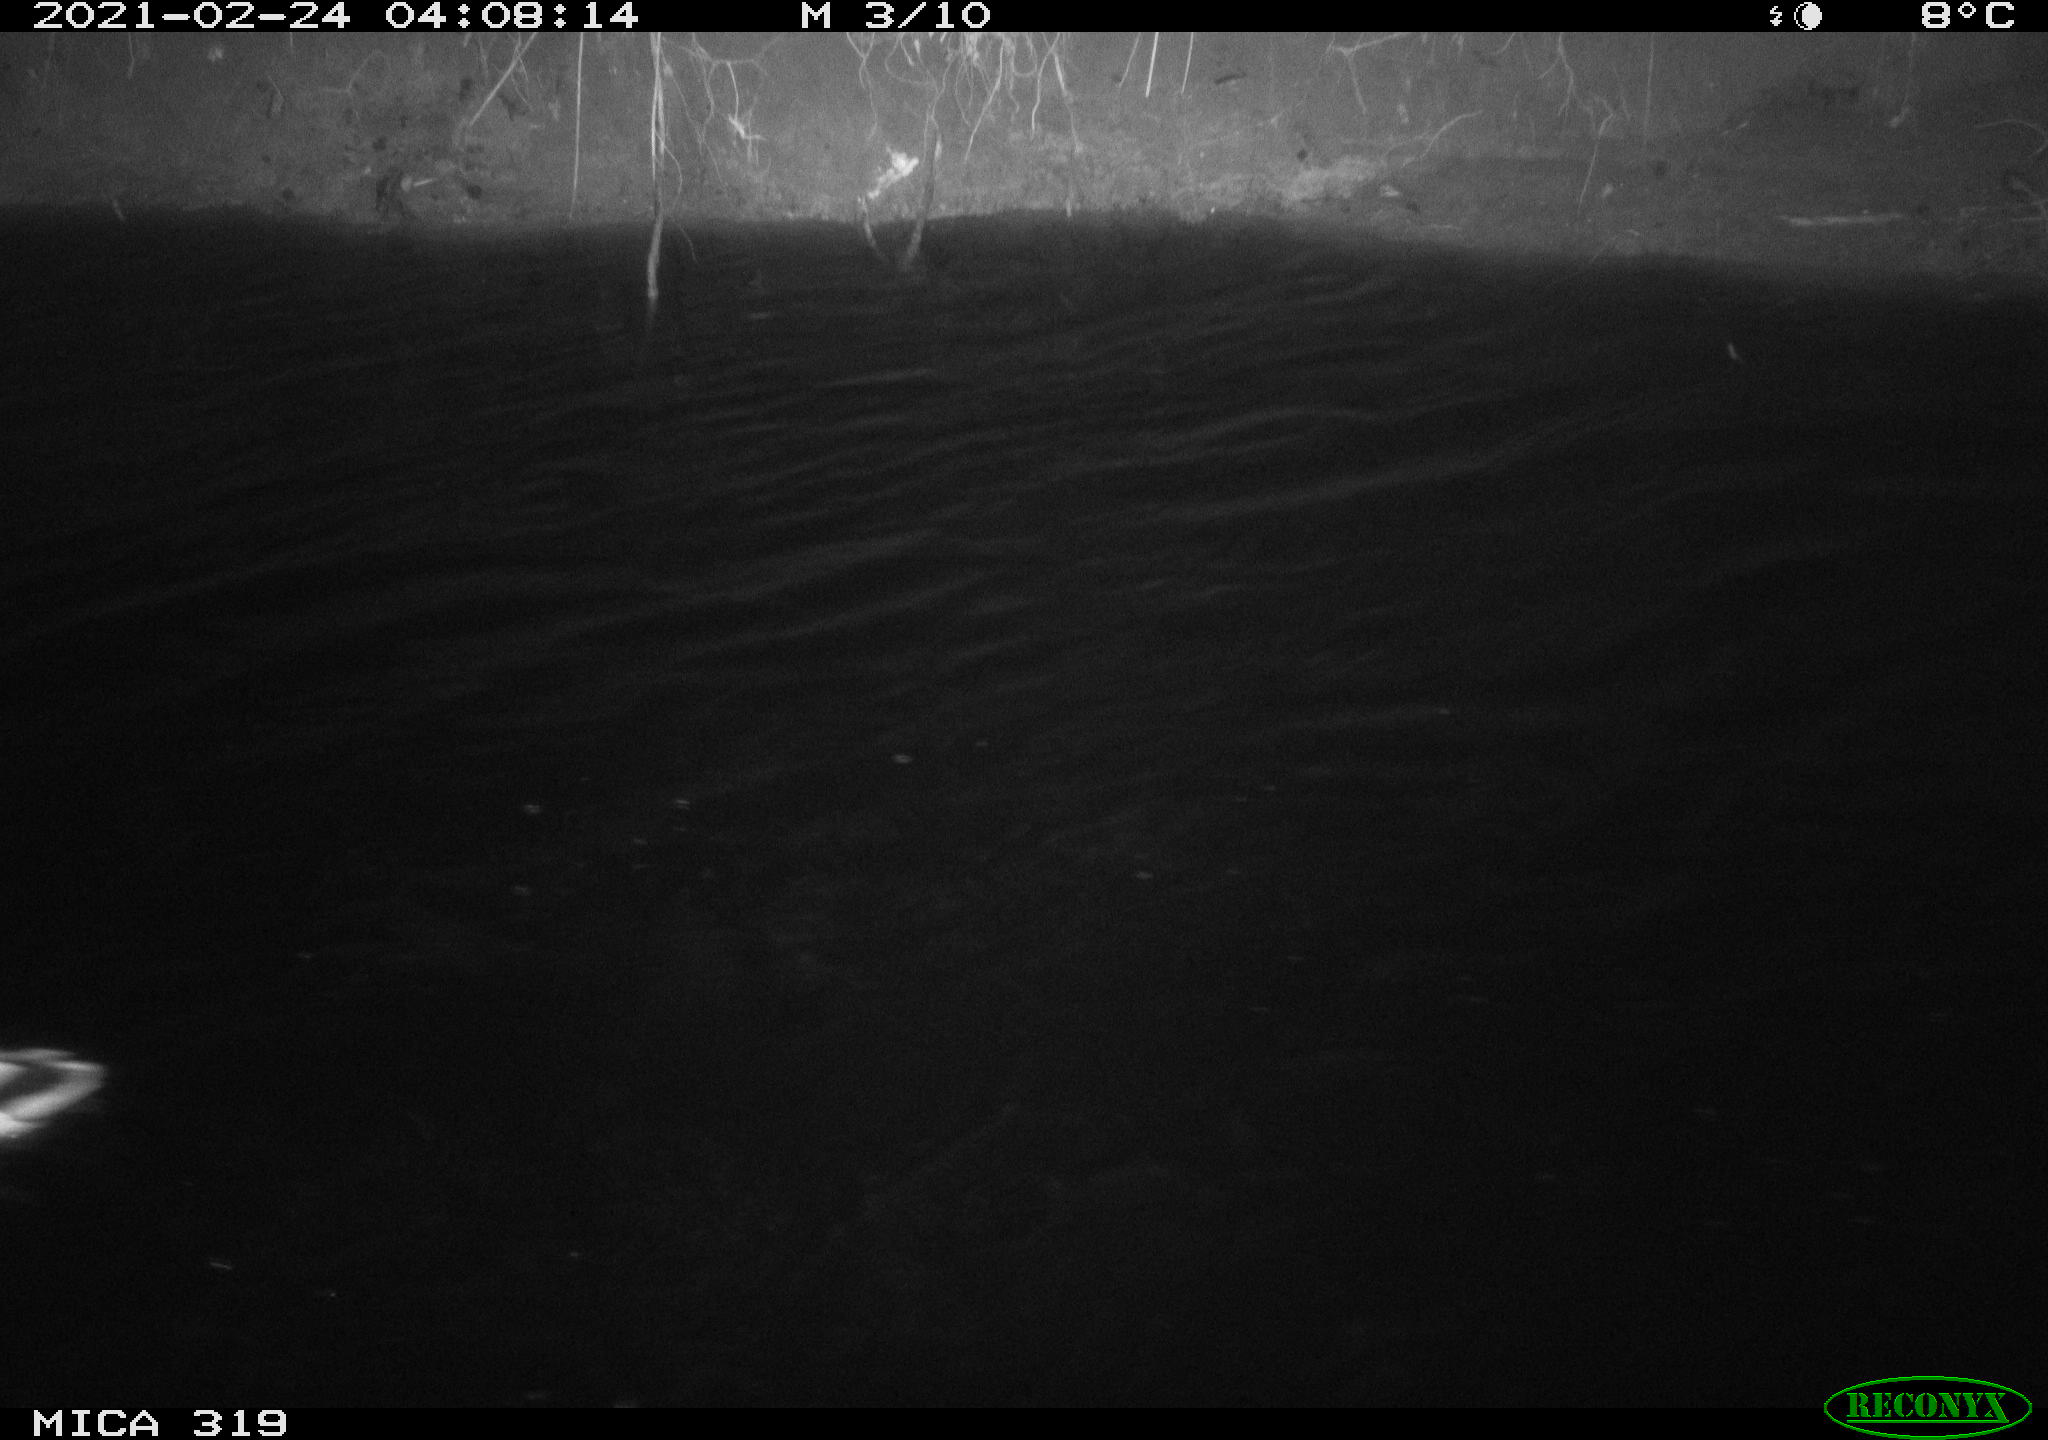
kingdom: Animalia
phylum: Chordata
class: Aves
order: Anseriformes
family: Anatidae
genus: Anas
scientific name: Anas platyrhynchos
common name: Mallard
